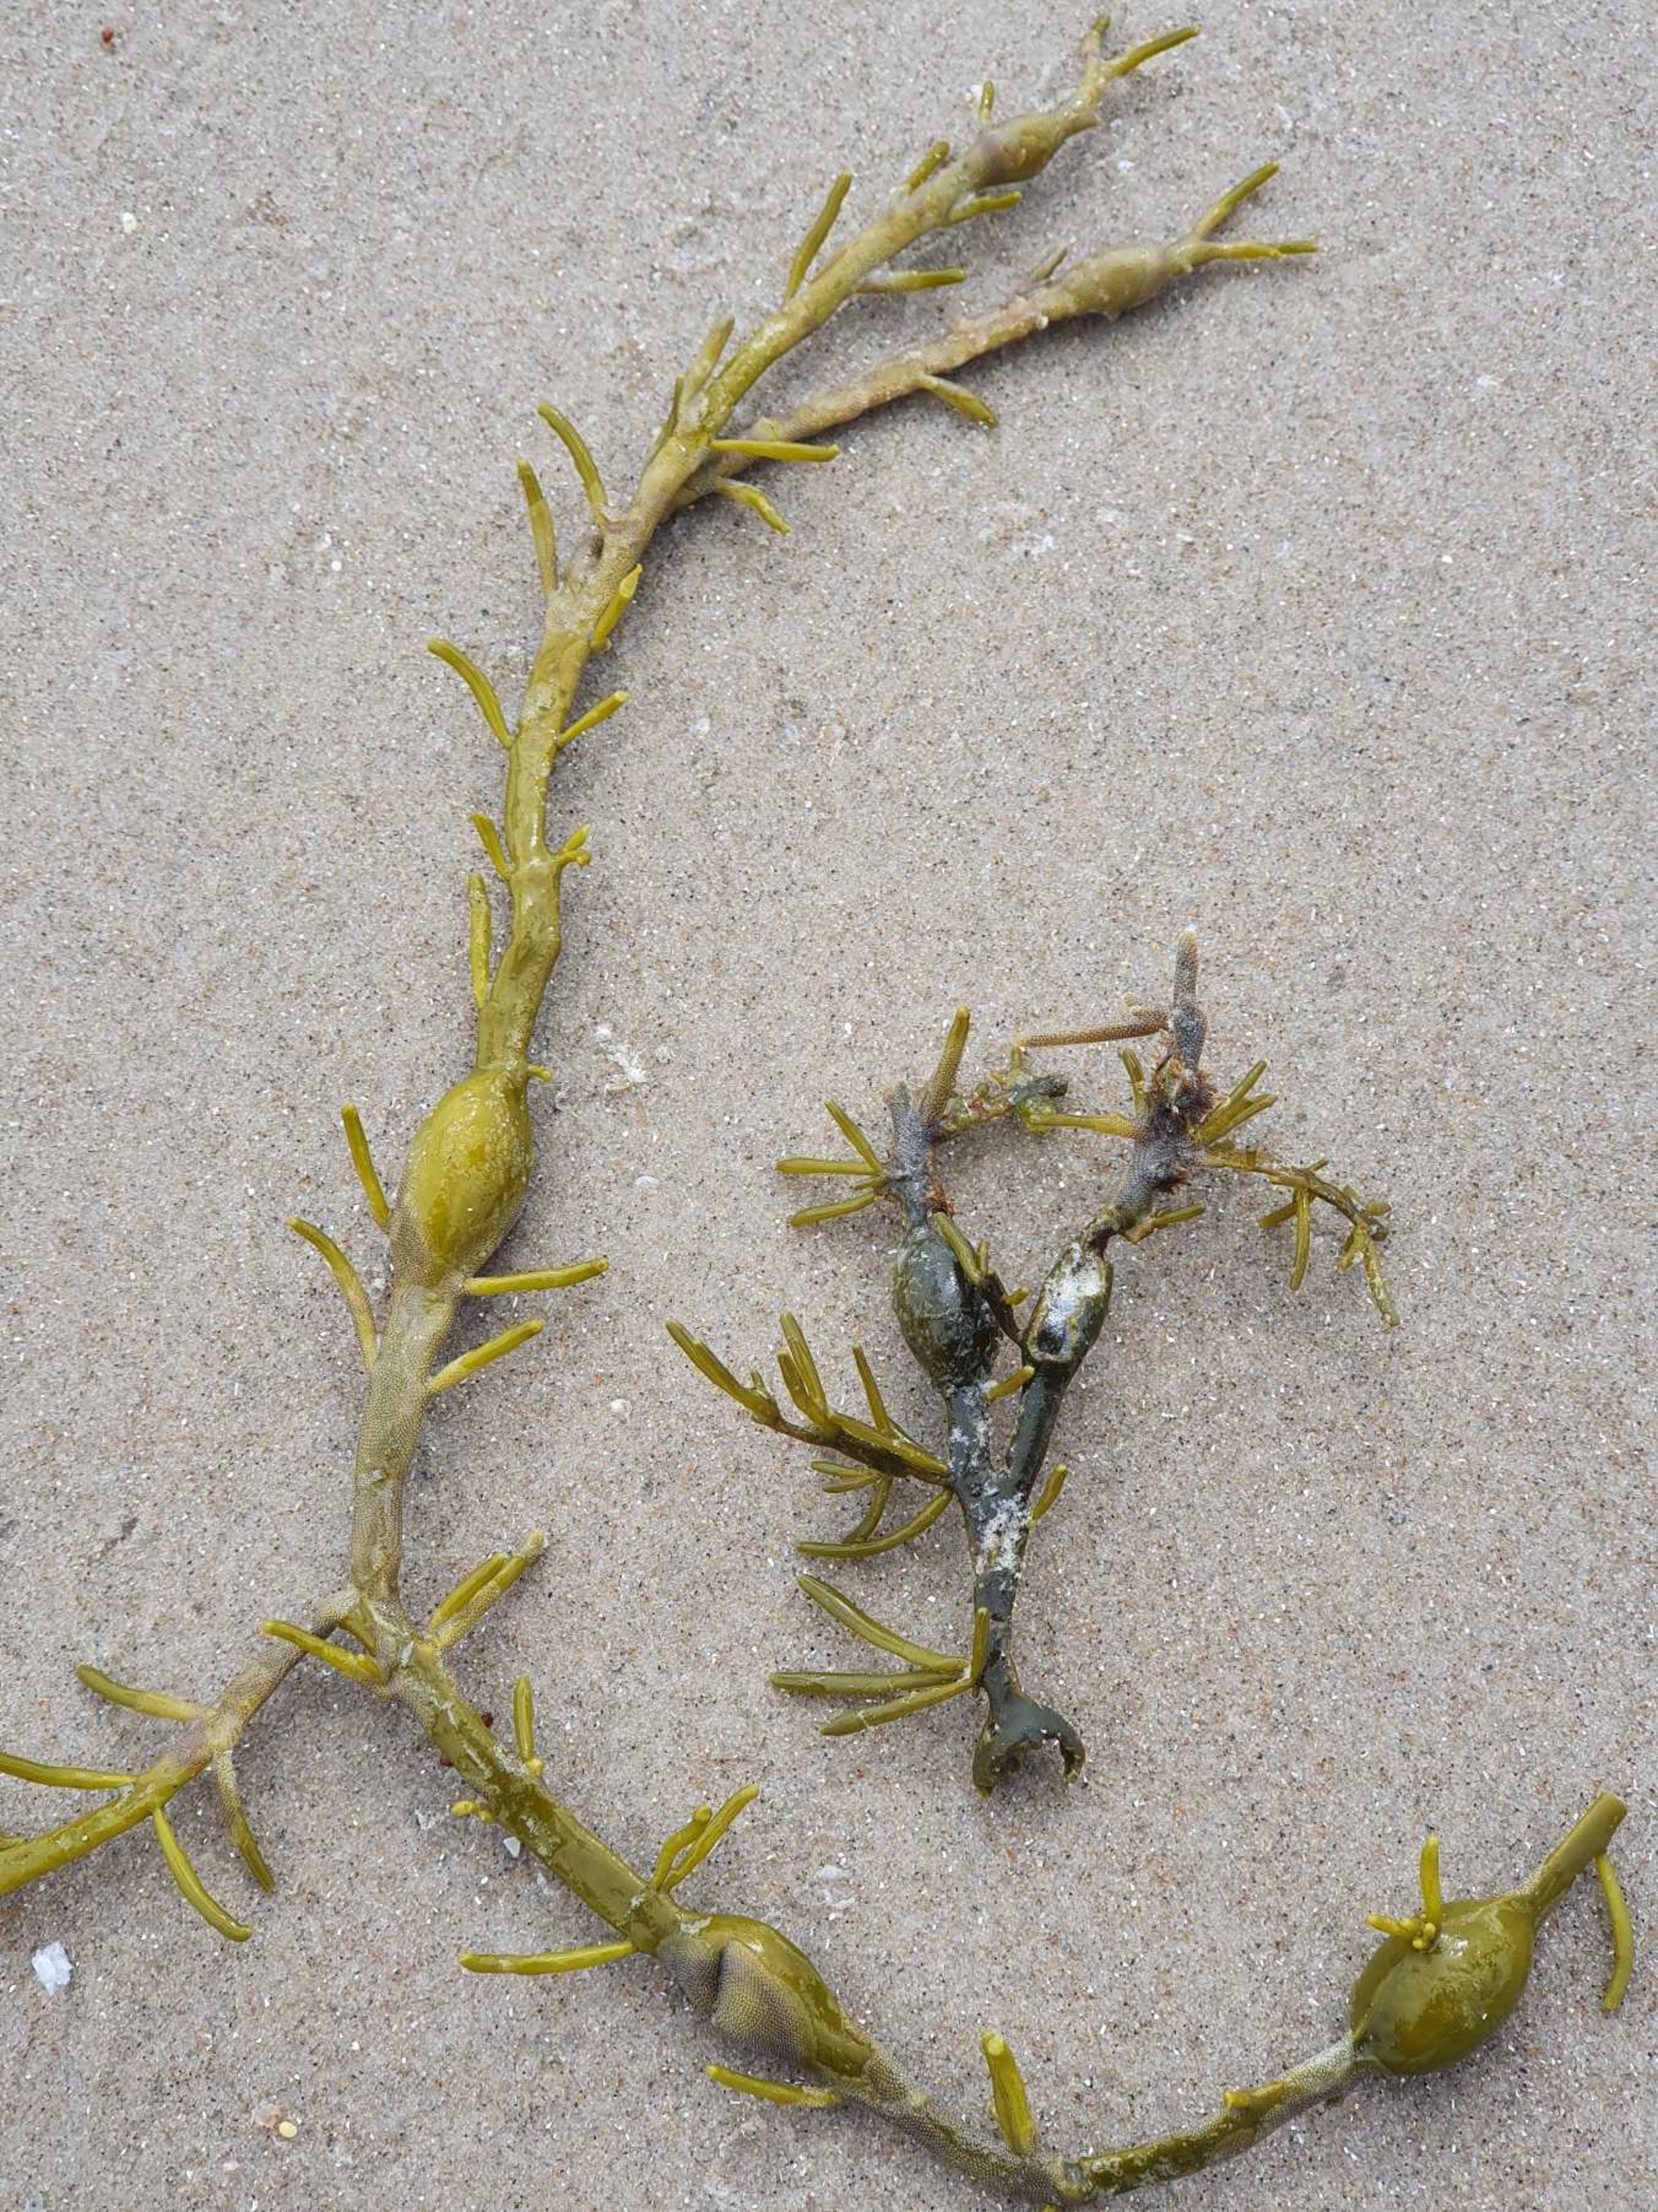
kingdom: Chromista
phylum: Ochrophyta
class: Phaeophyceae
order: Fucales
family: Fucaceae
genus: Ascophyllum
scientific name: Ascophyllum nodosum
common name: Buletang
